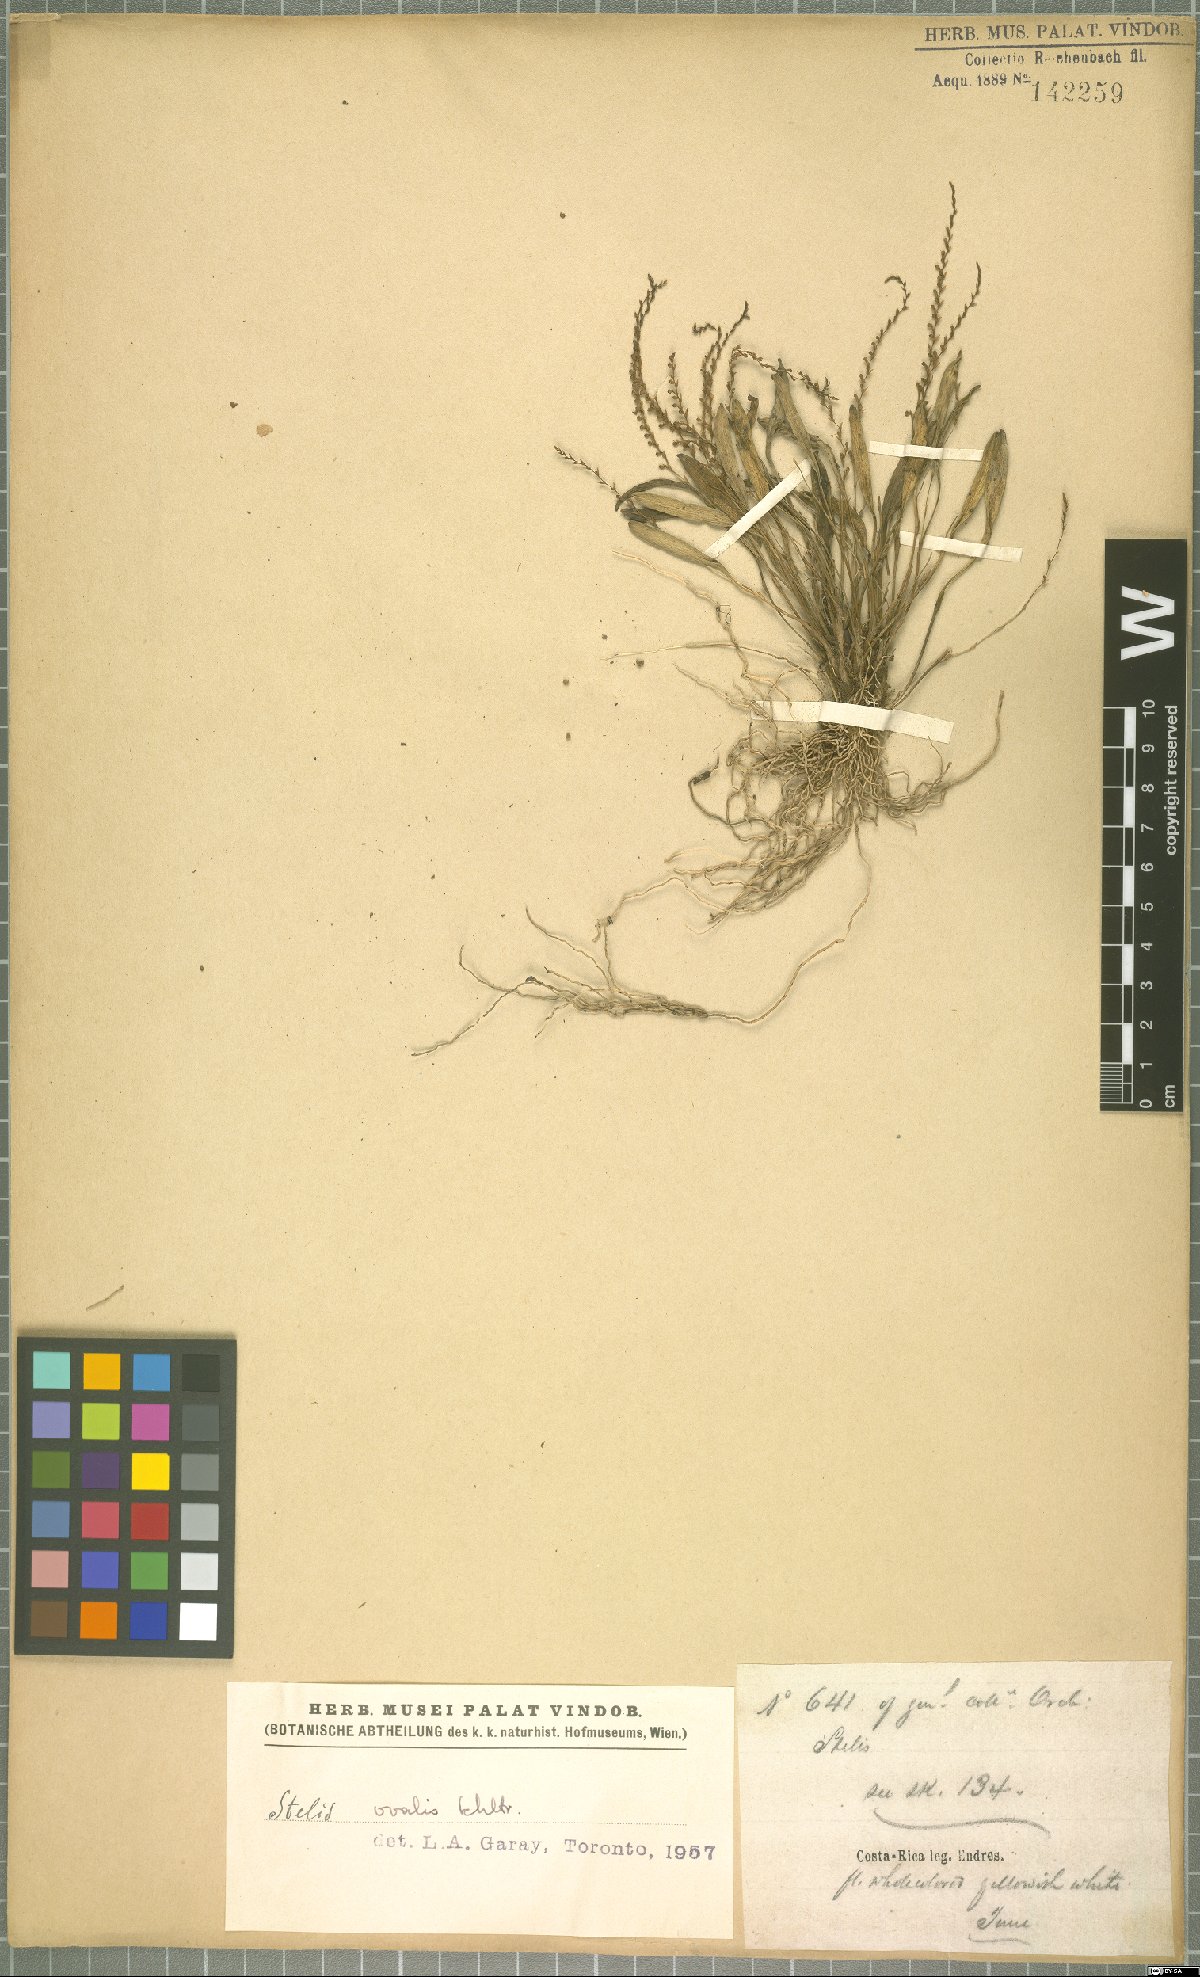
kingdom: Plantae
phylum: Tracheophyta
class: Liliopsida
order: Asparagales
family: Orchidaceae
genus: Stelis
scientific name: Stelis
